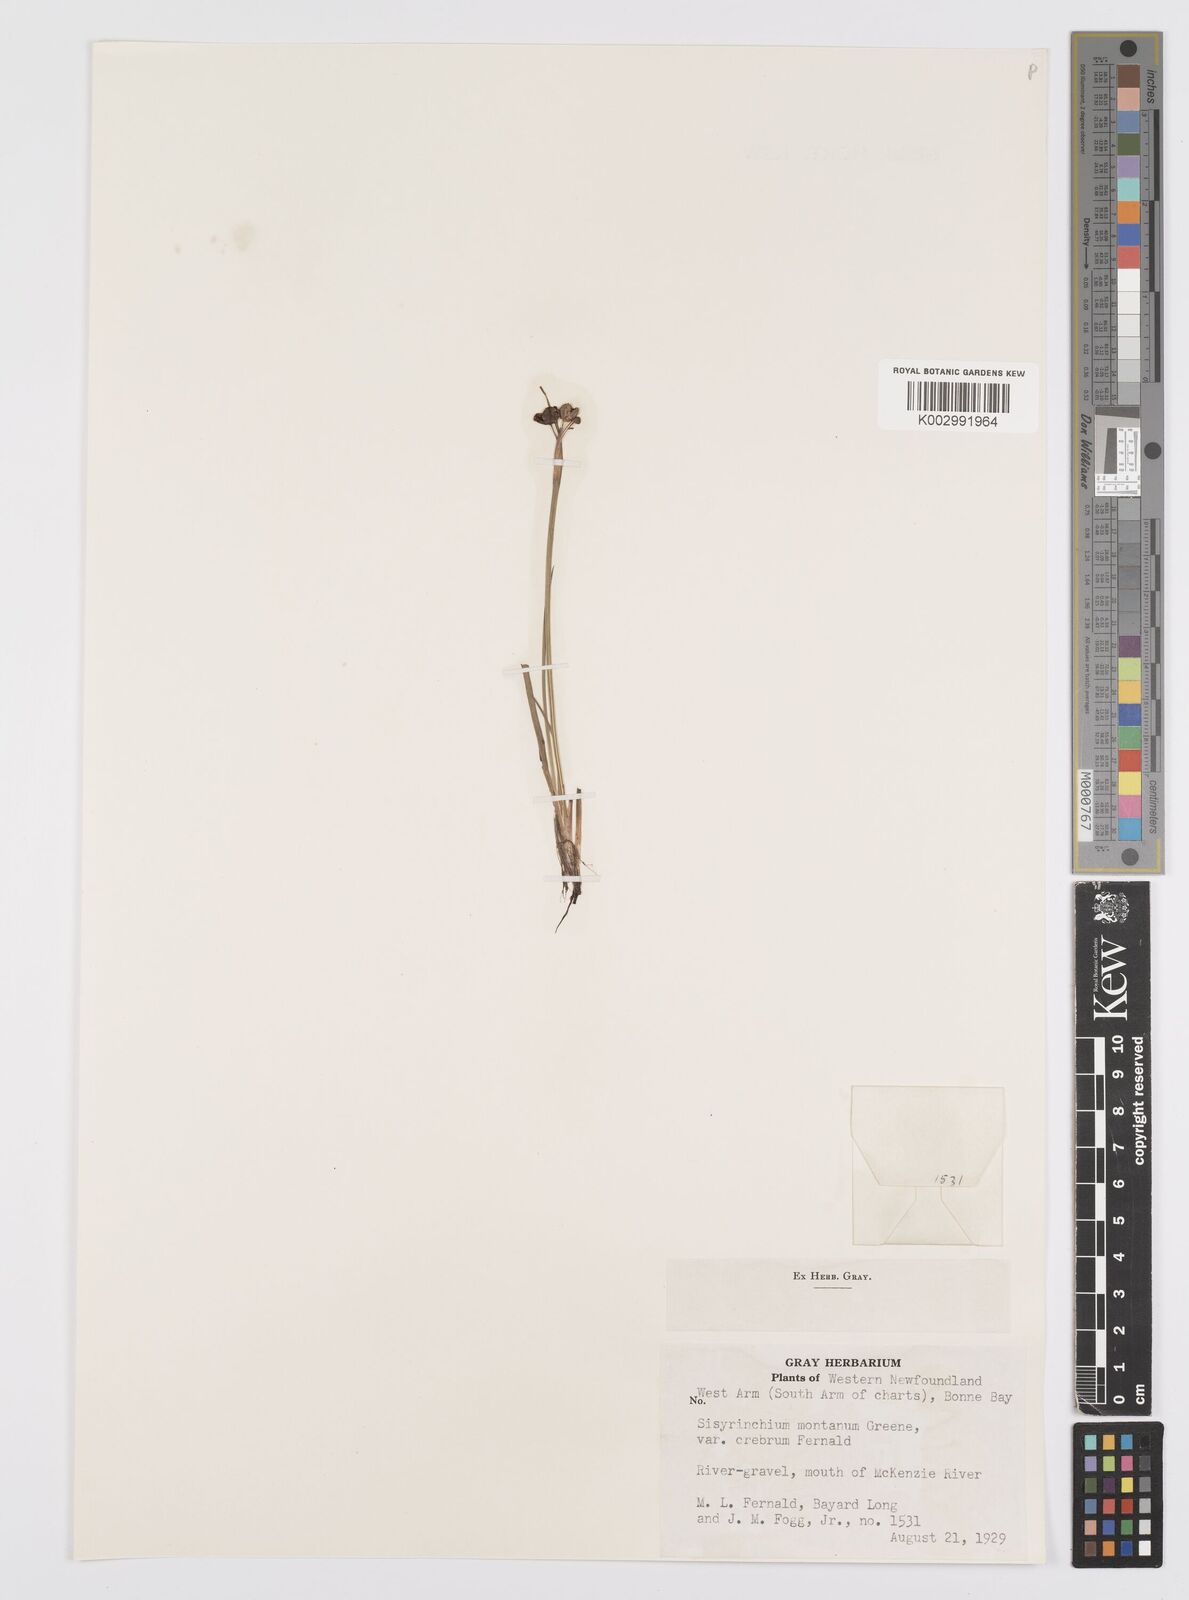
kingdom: Plantae
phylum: Tracheophyta
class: Liliopsida
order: Asparagales
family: Iridaceae
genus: Sisyrinchium
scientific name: Sisyrinchium montanum
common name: American blue-eyed-grass
